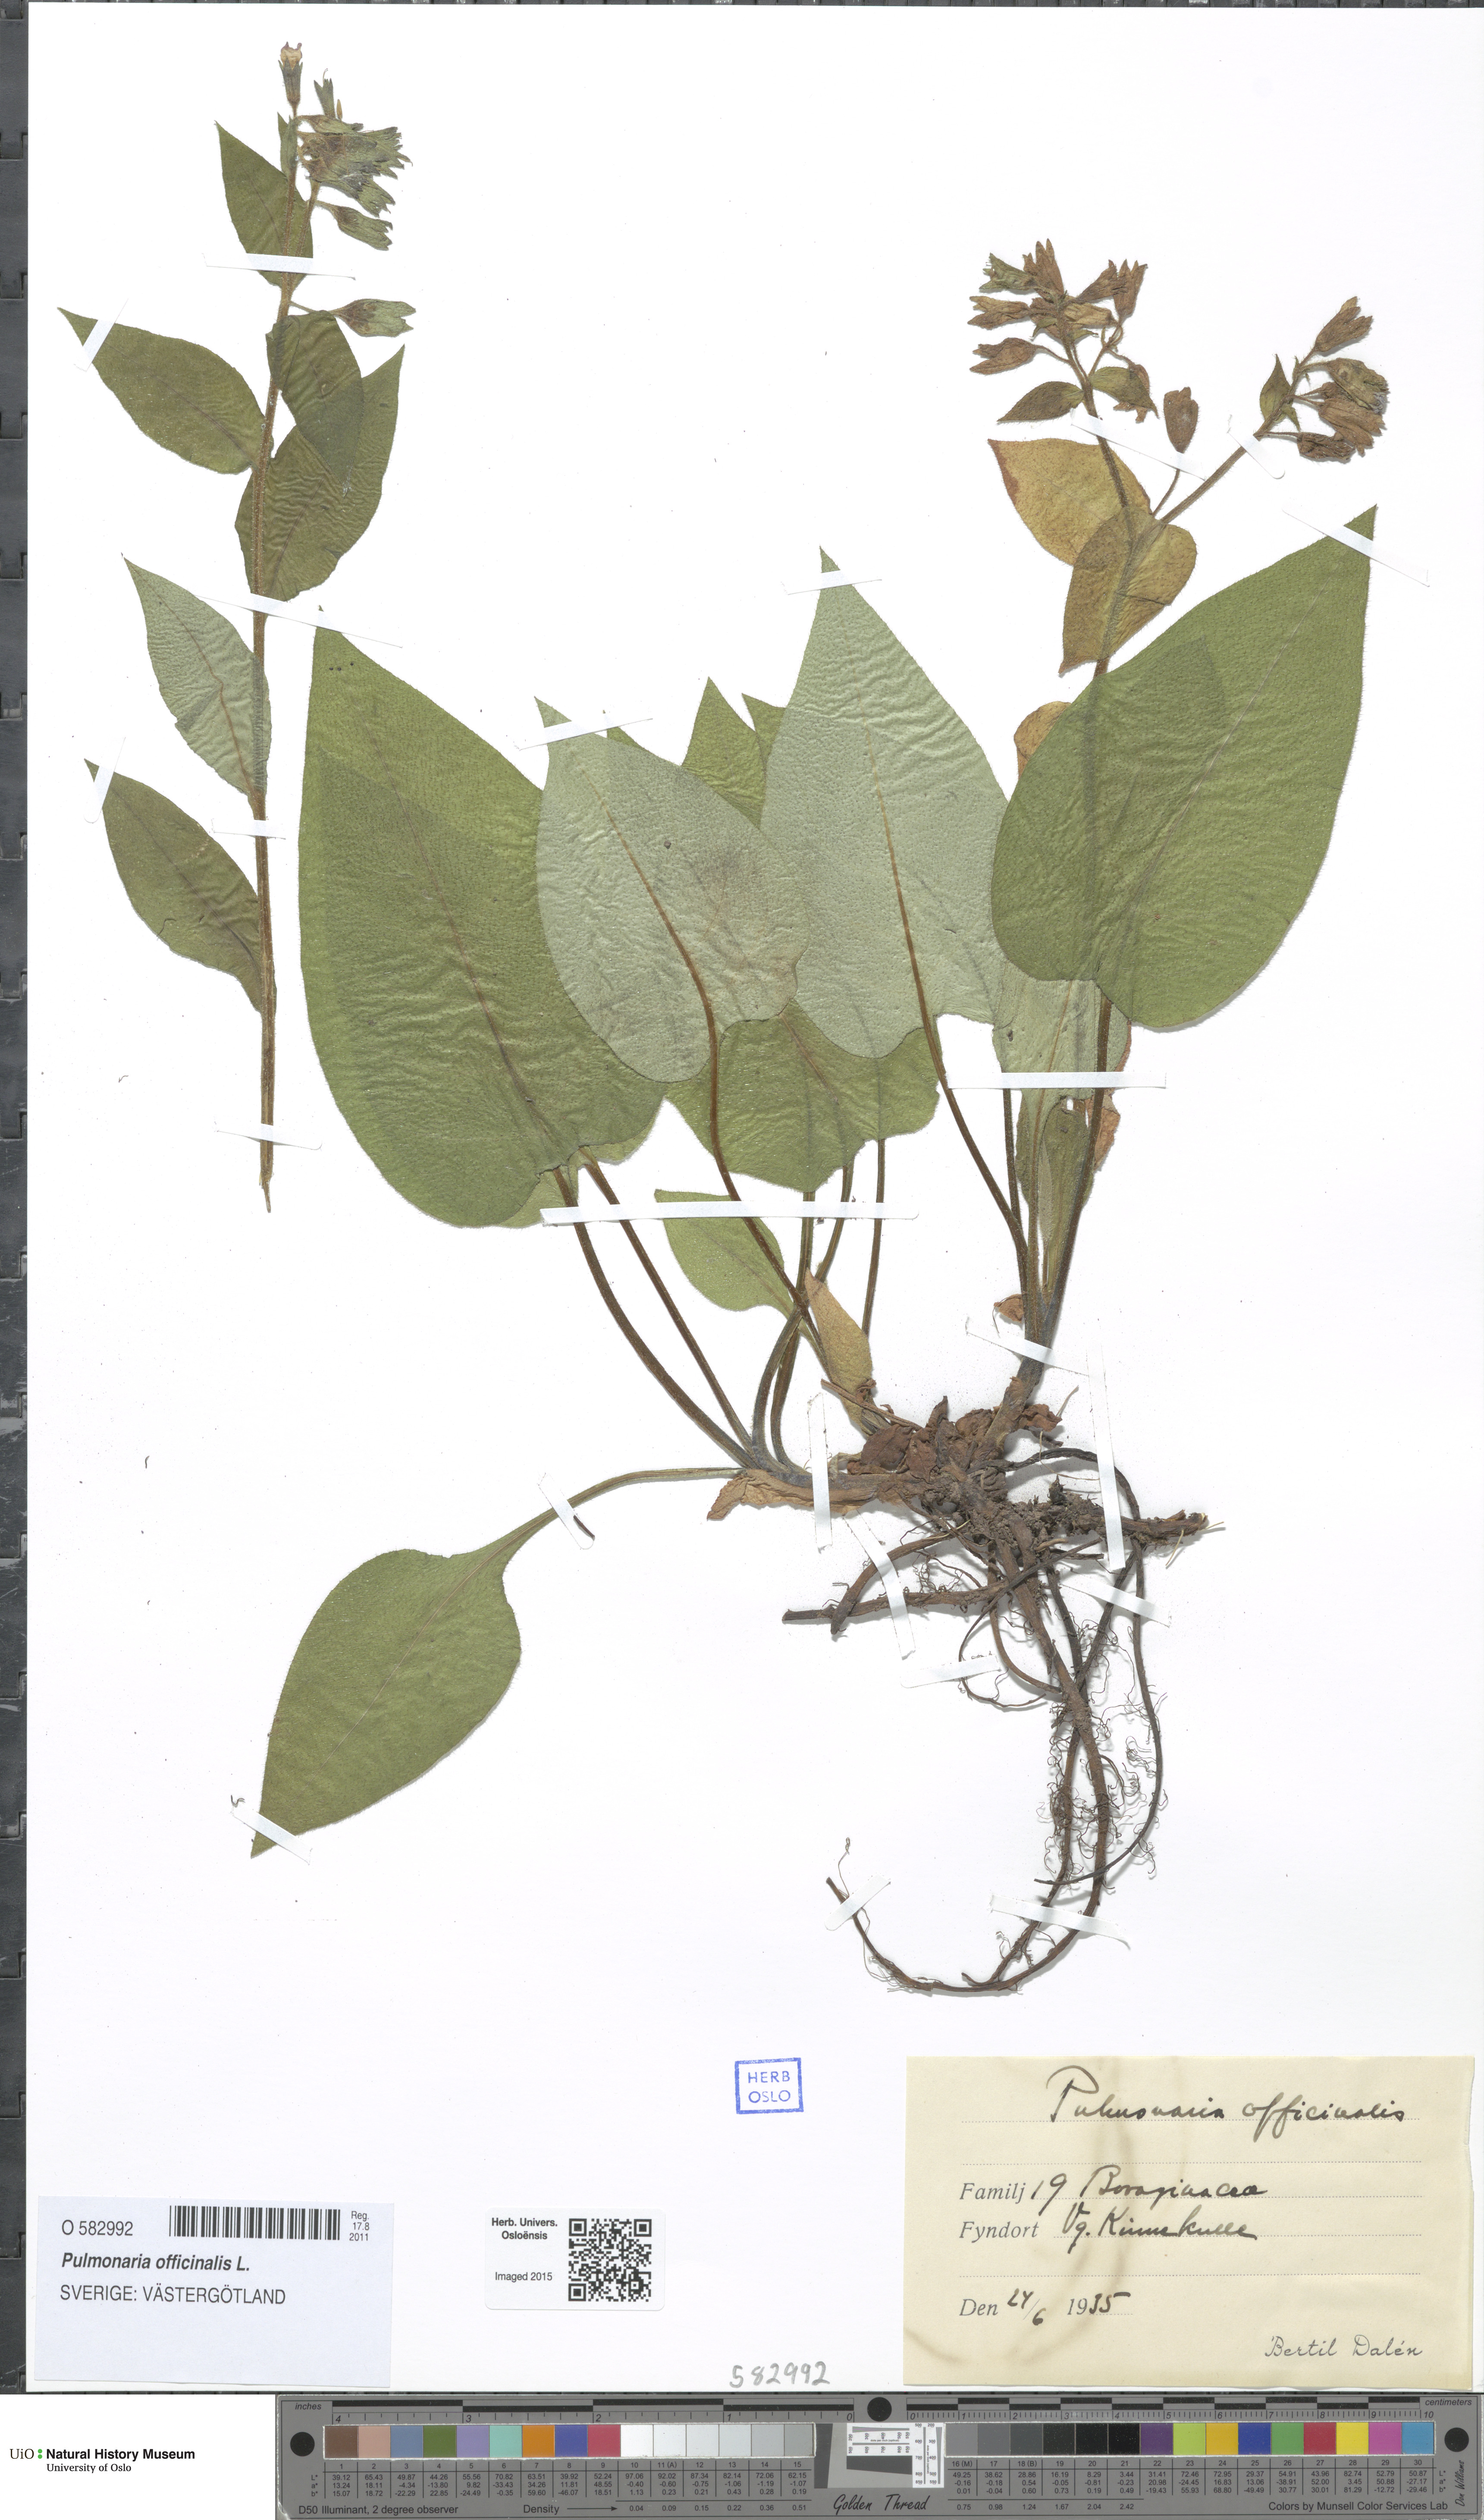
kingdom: Plantae
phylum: Tracheophyta
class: Magnoliopsida
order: Boraginales
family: Boraginaceae
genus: Pulmonaria
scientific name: Pulmonaria officinalis
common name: Lungwort
